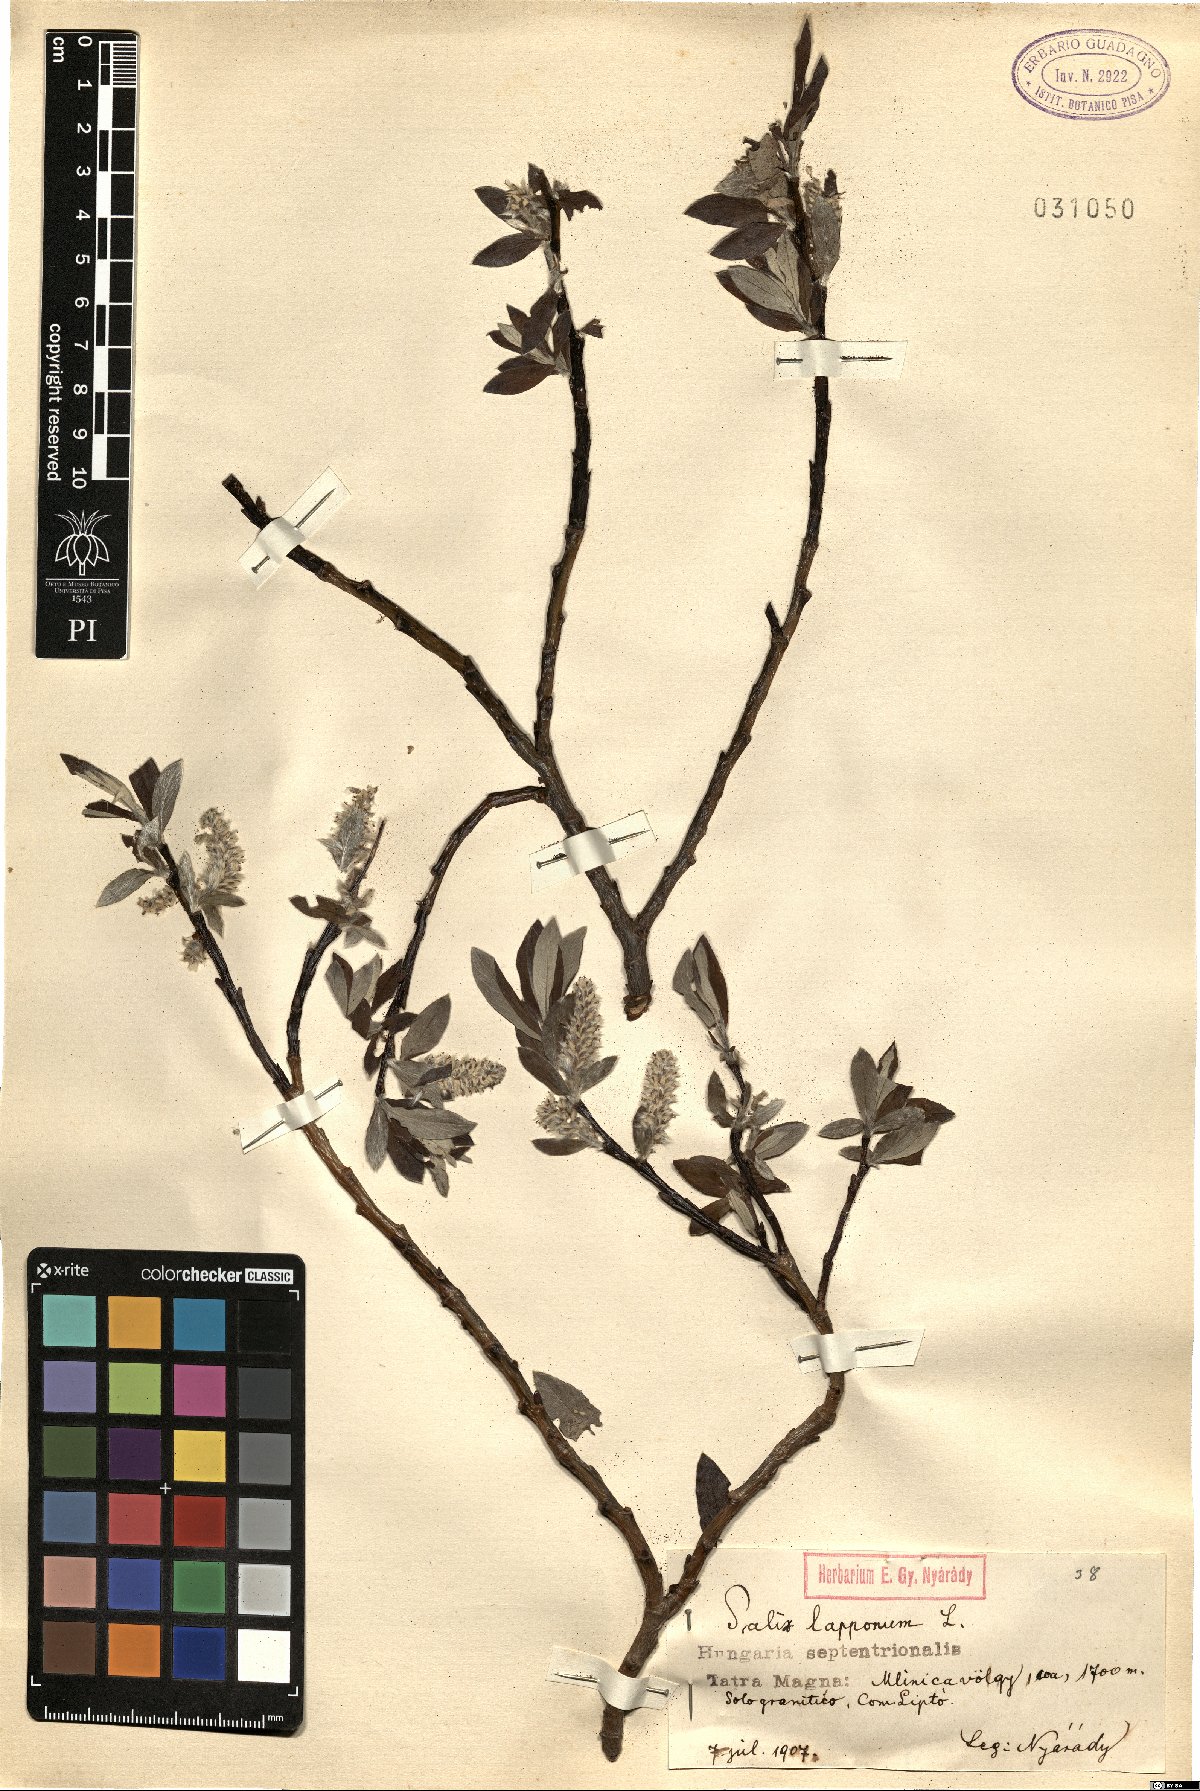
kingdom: Plantae
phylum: Tracheophyta
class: Magnoliopsida
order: Malpighiales
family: Salicaceae
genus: Salix
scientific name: Salix lapponum
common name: Downy willow
